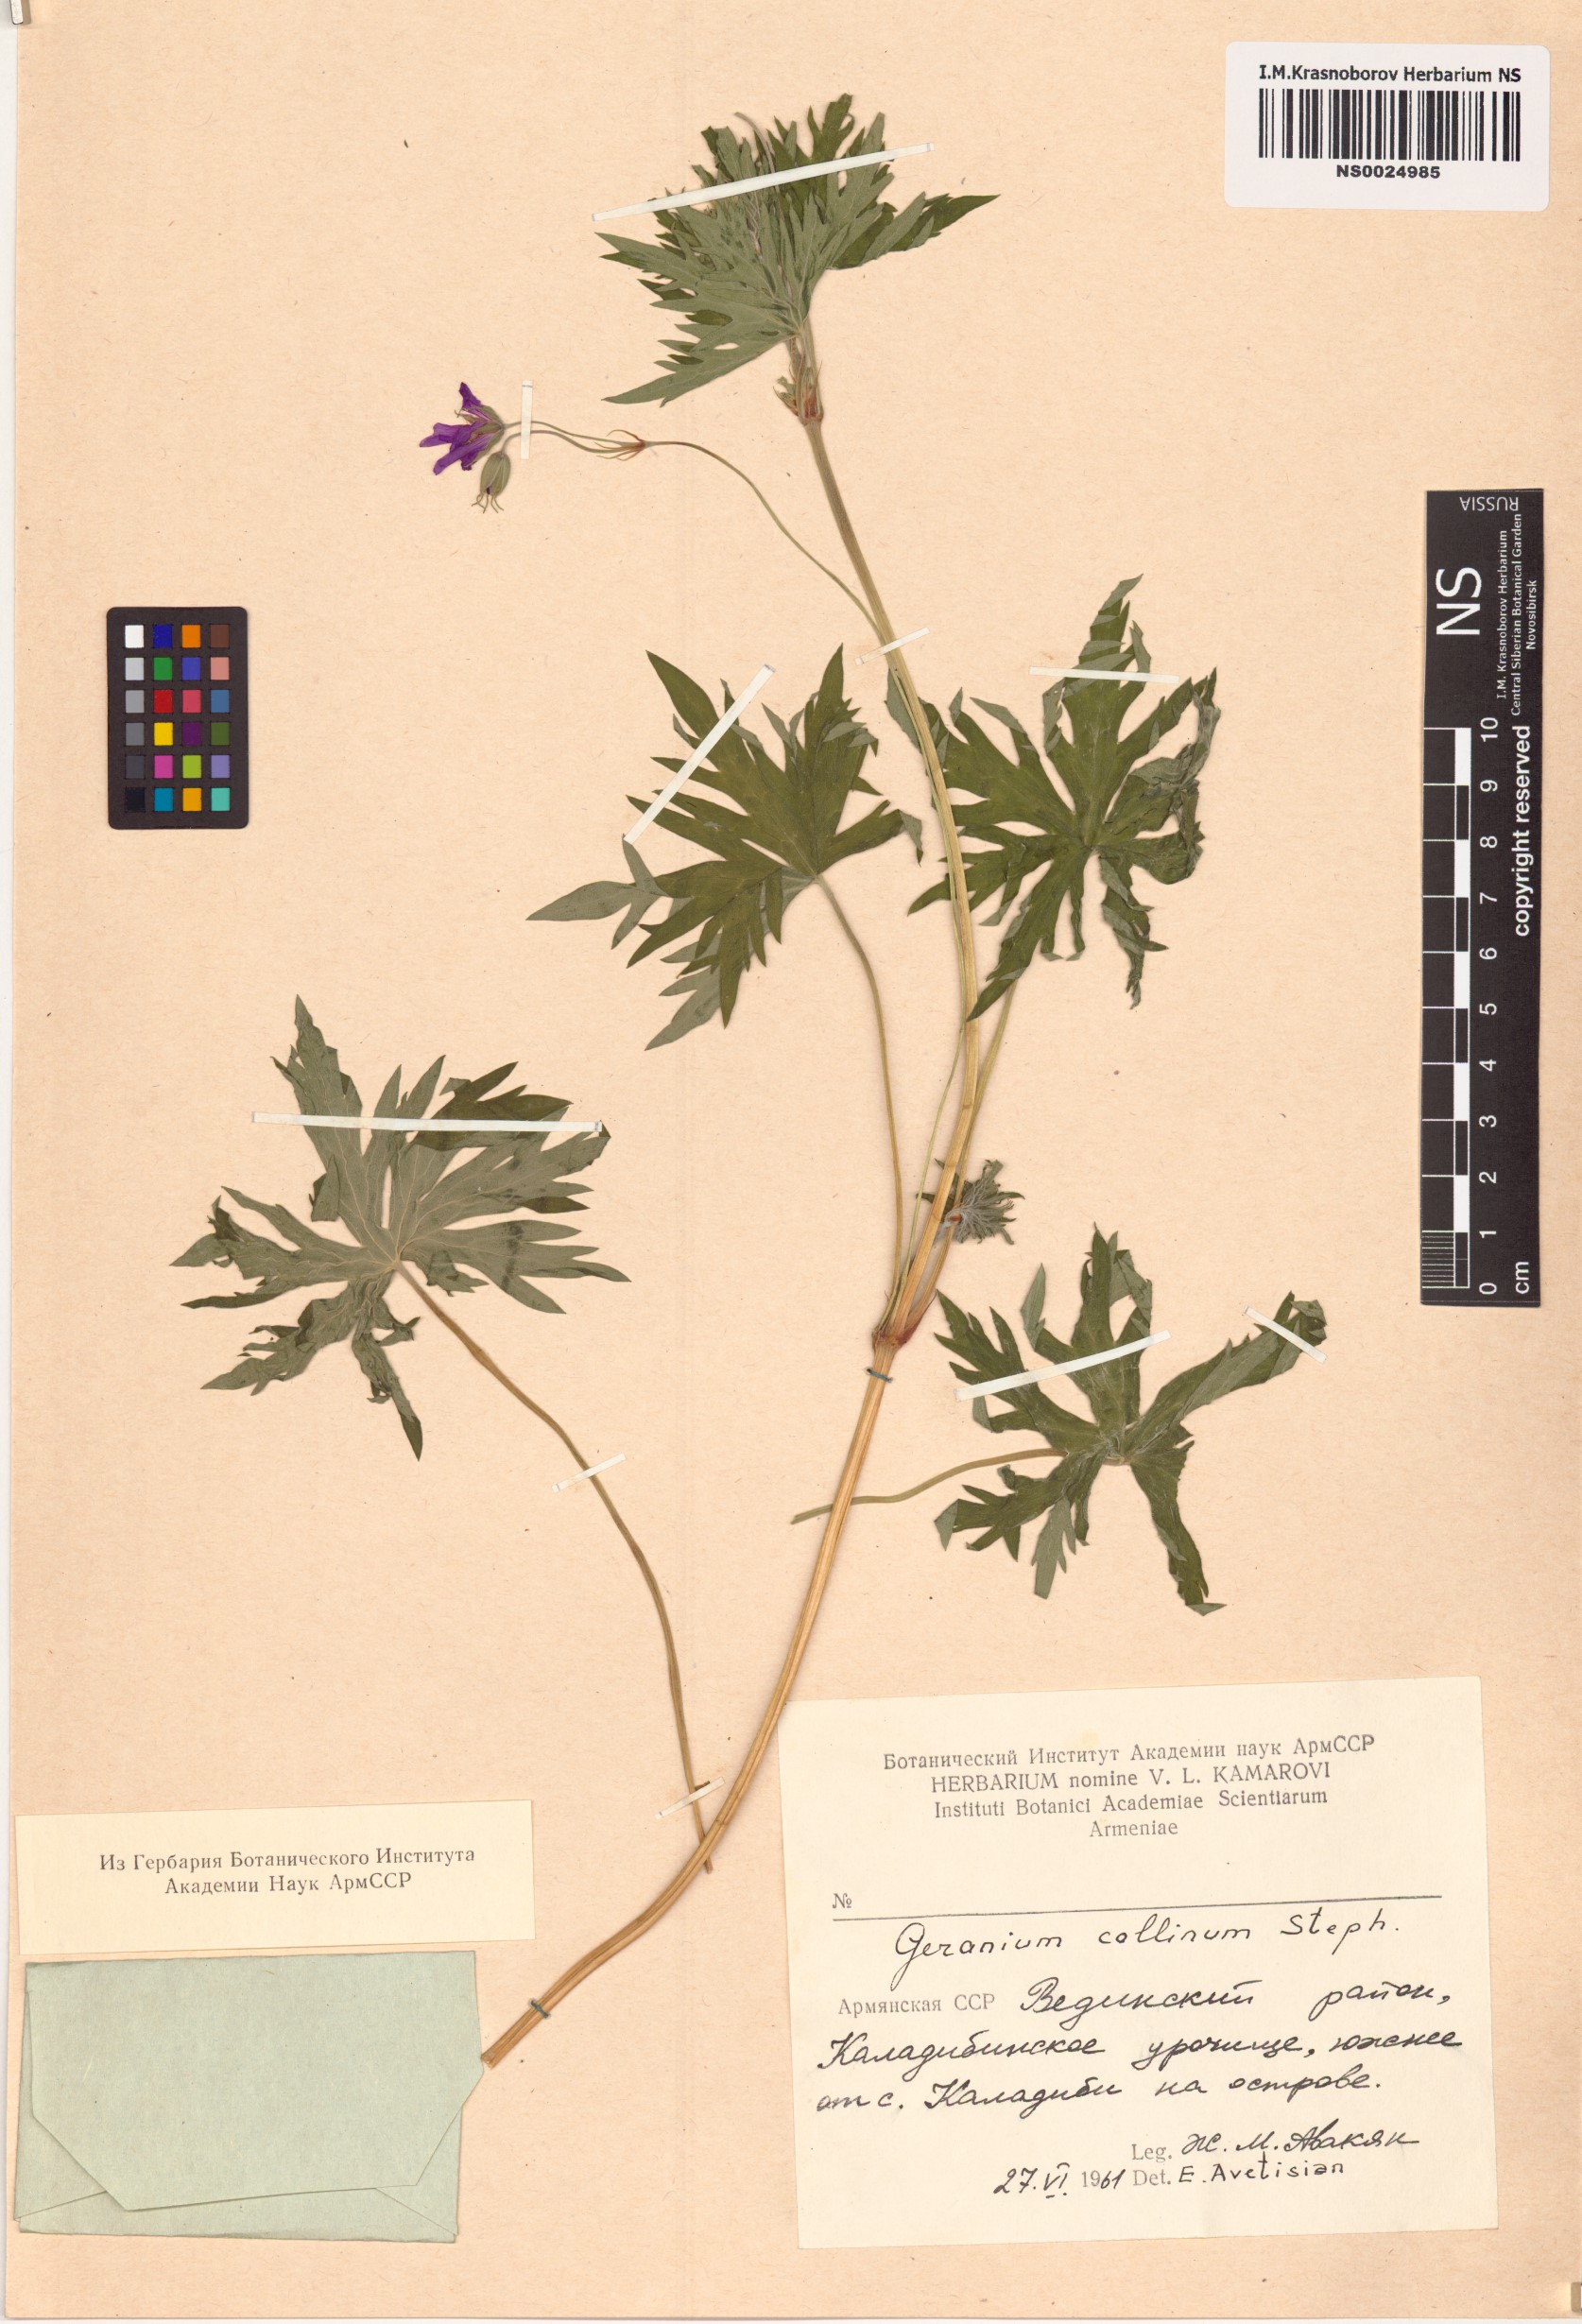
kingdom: Plantae
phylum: Tracheophyta
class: Magnoliopsida
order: Geraniales
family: Geraniaceae
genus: Geranium
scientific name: Geranium collinum
